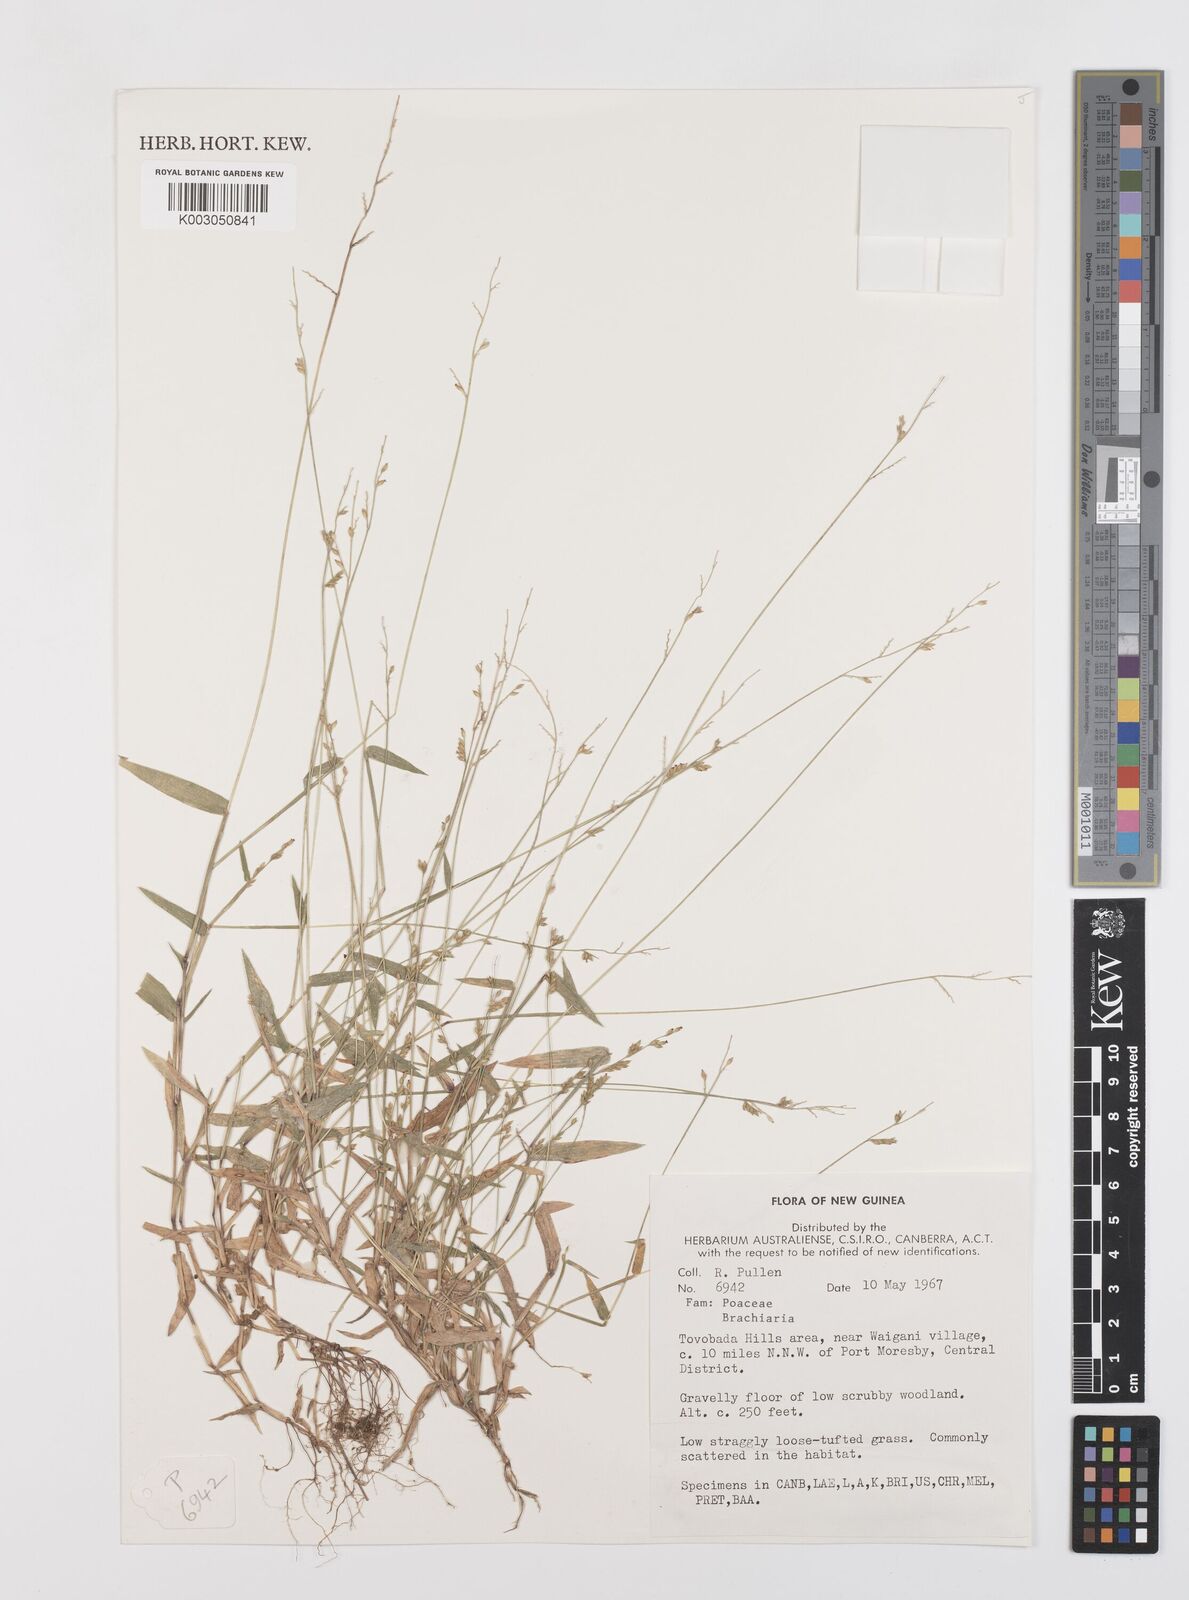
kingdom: Plantae
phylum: Tracheophyta
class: Liliopsida
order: Poales
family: Poaceae
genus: Urochloa
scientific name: Urochloa villosa
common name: Hairy signalgrass
